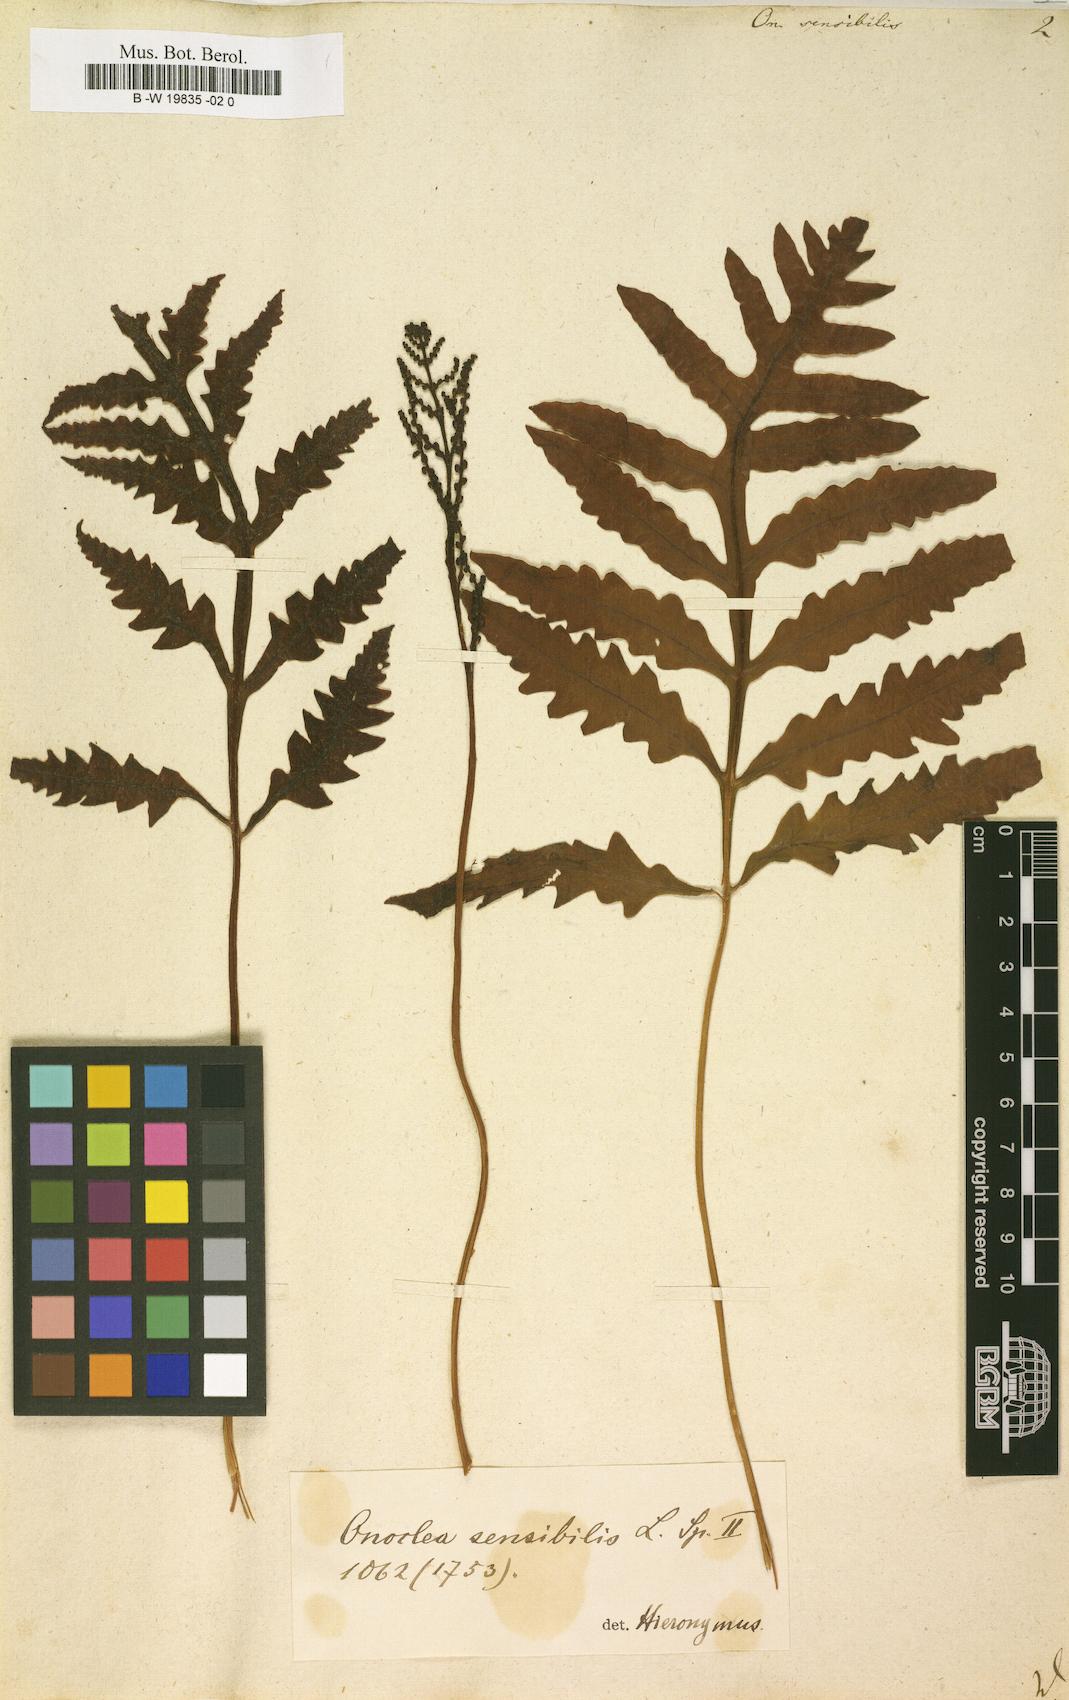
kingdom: Plantae
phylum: Tracheophyta
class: Polypodiopsida
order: Polypodiales
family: Onocleaceae
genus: Onoclea
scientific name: Onoclea sensibilis
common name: Sensitive fern
